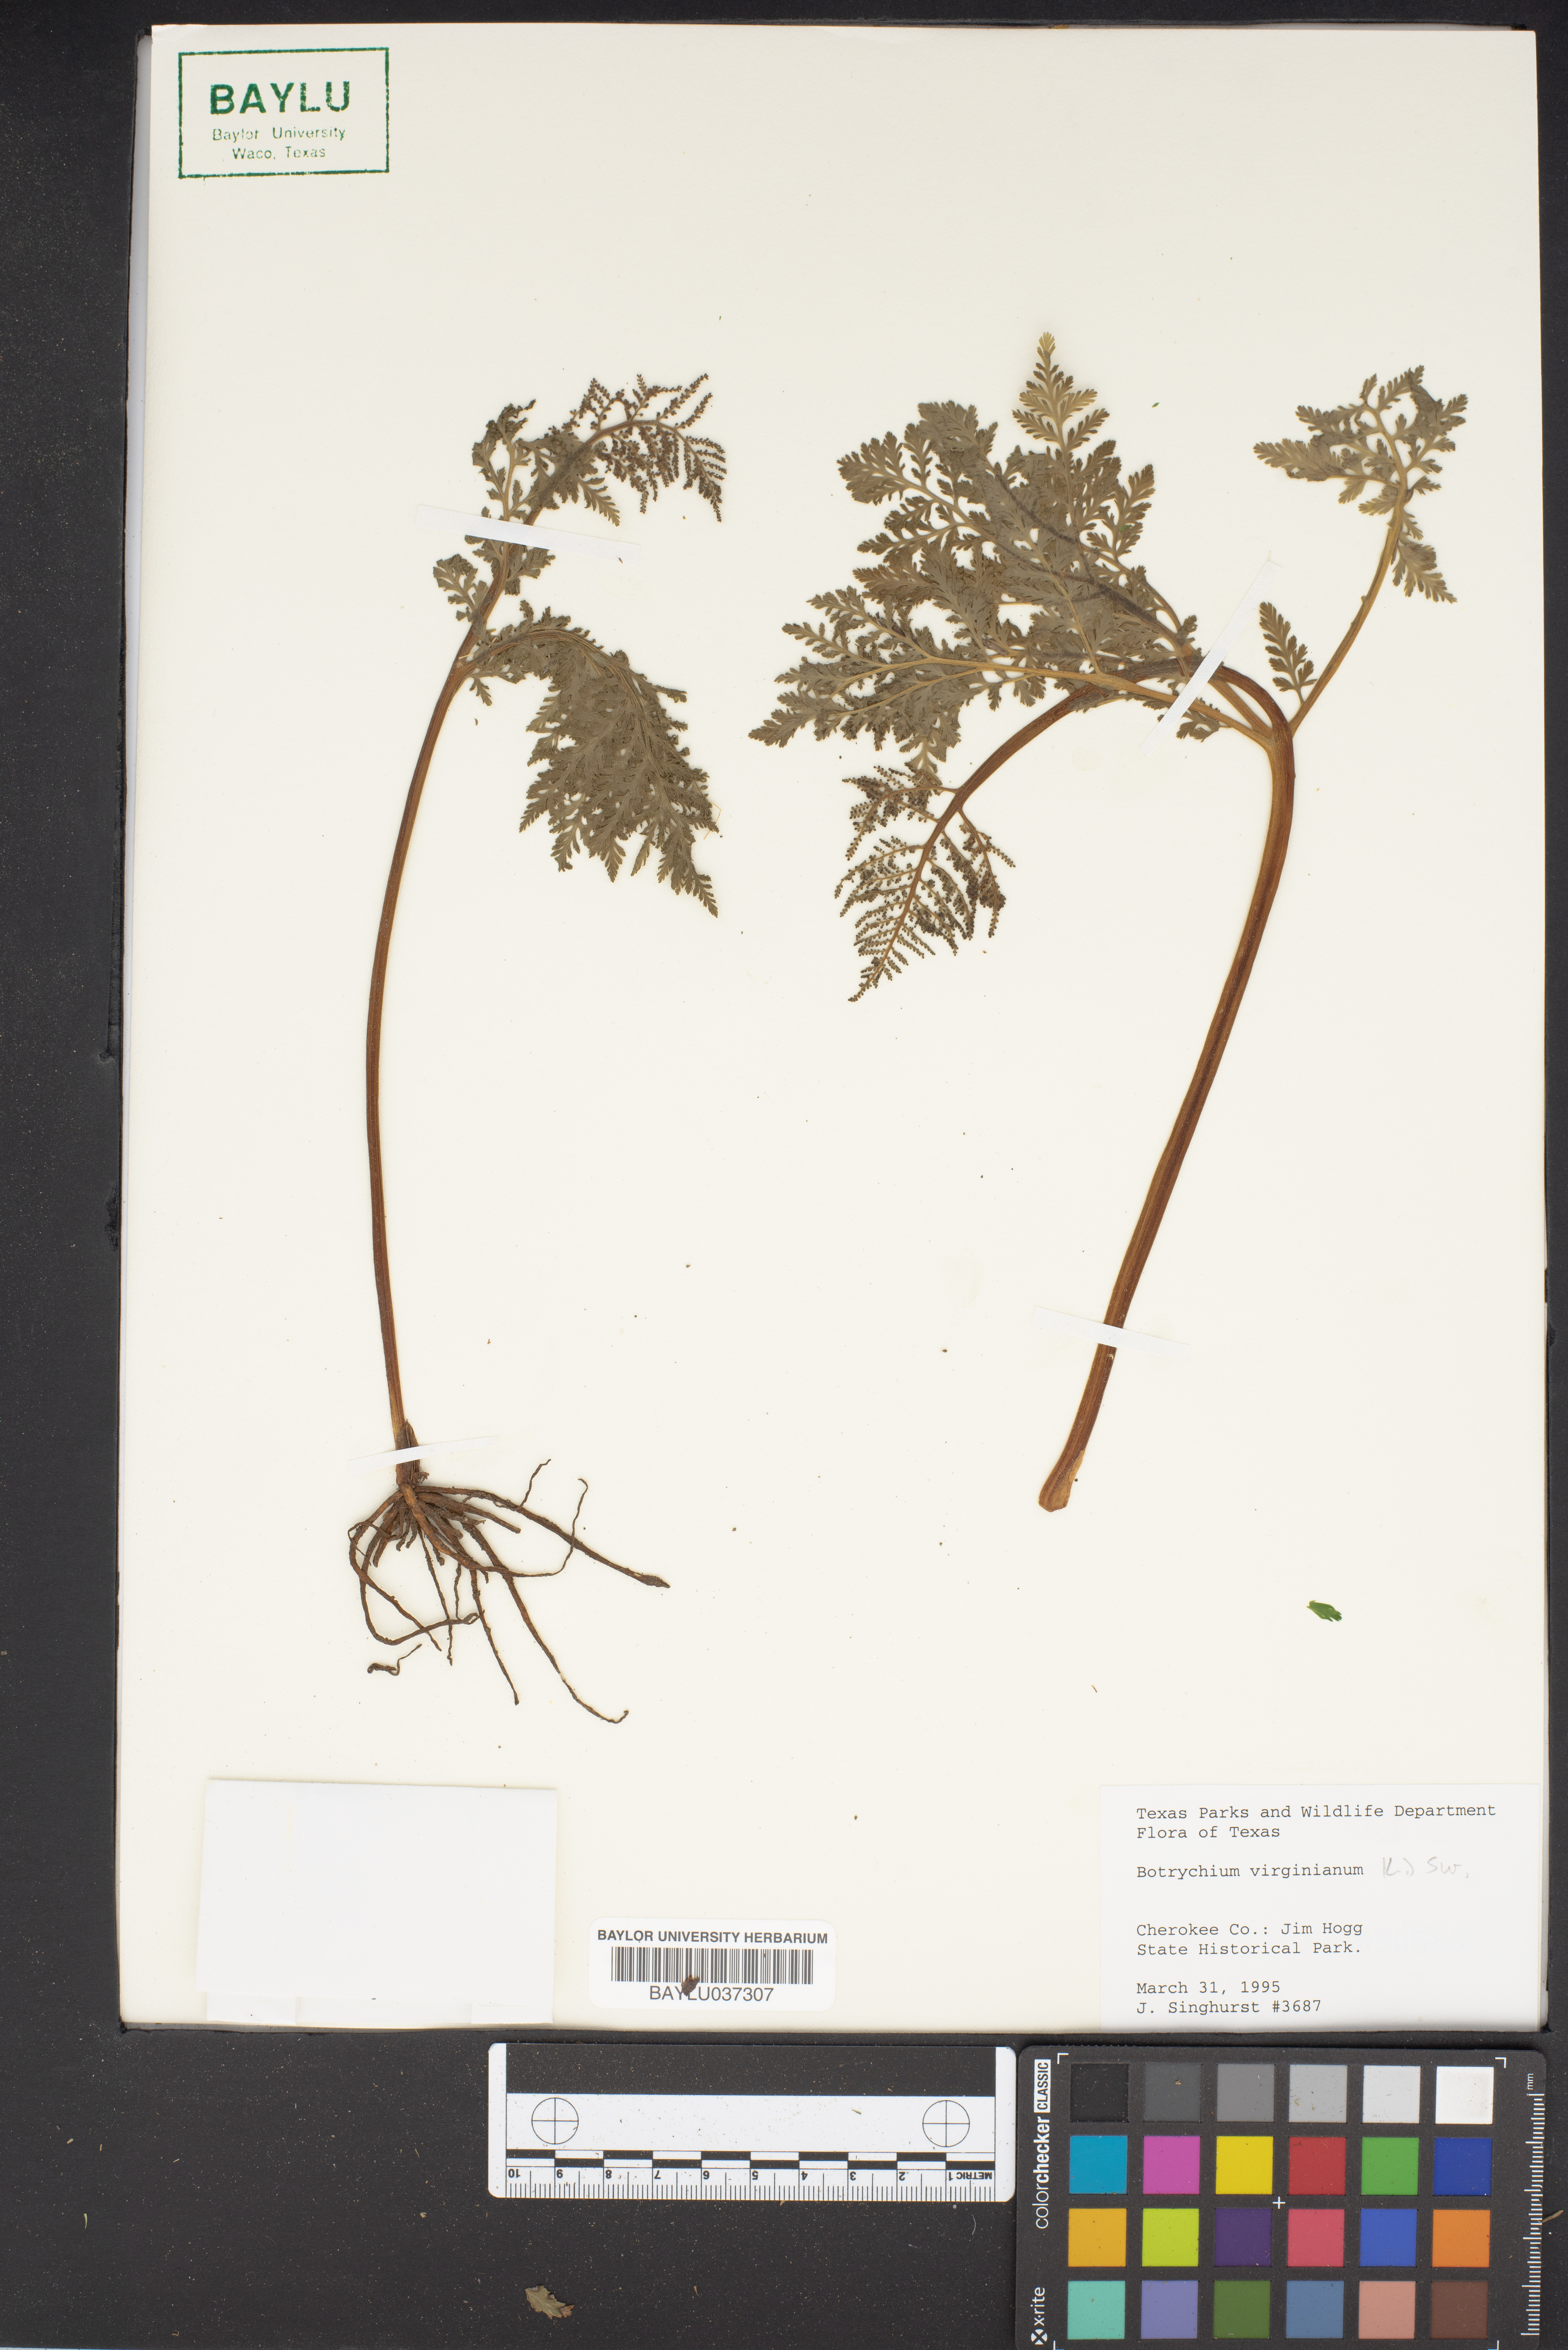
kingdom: Plantae
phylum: Tracheophyta
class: Polypodiopsida
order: Ophioglossales
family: Ophioglossaceae
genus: Botrypus
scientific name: Botrypus virginianus
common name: Common grapefern
